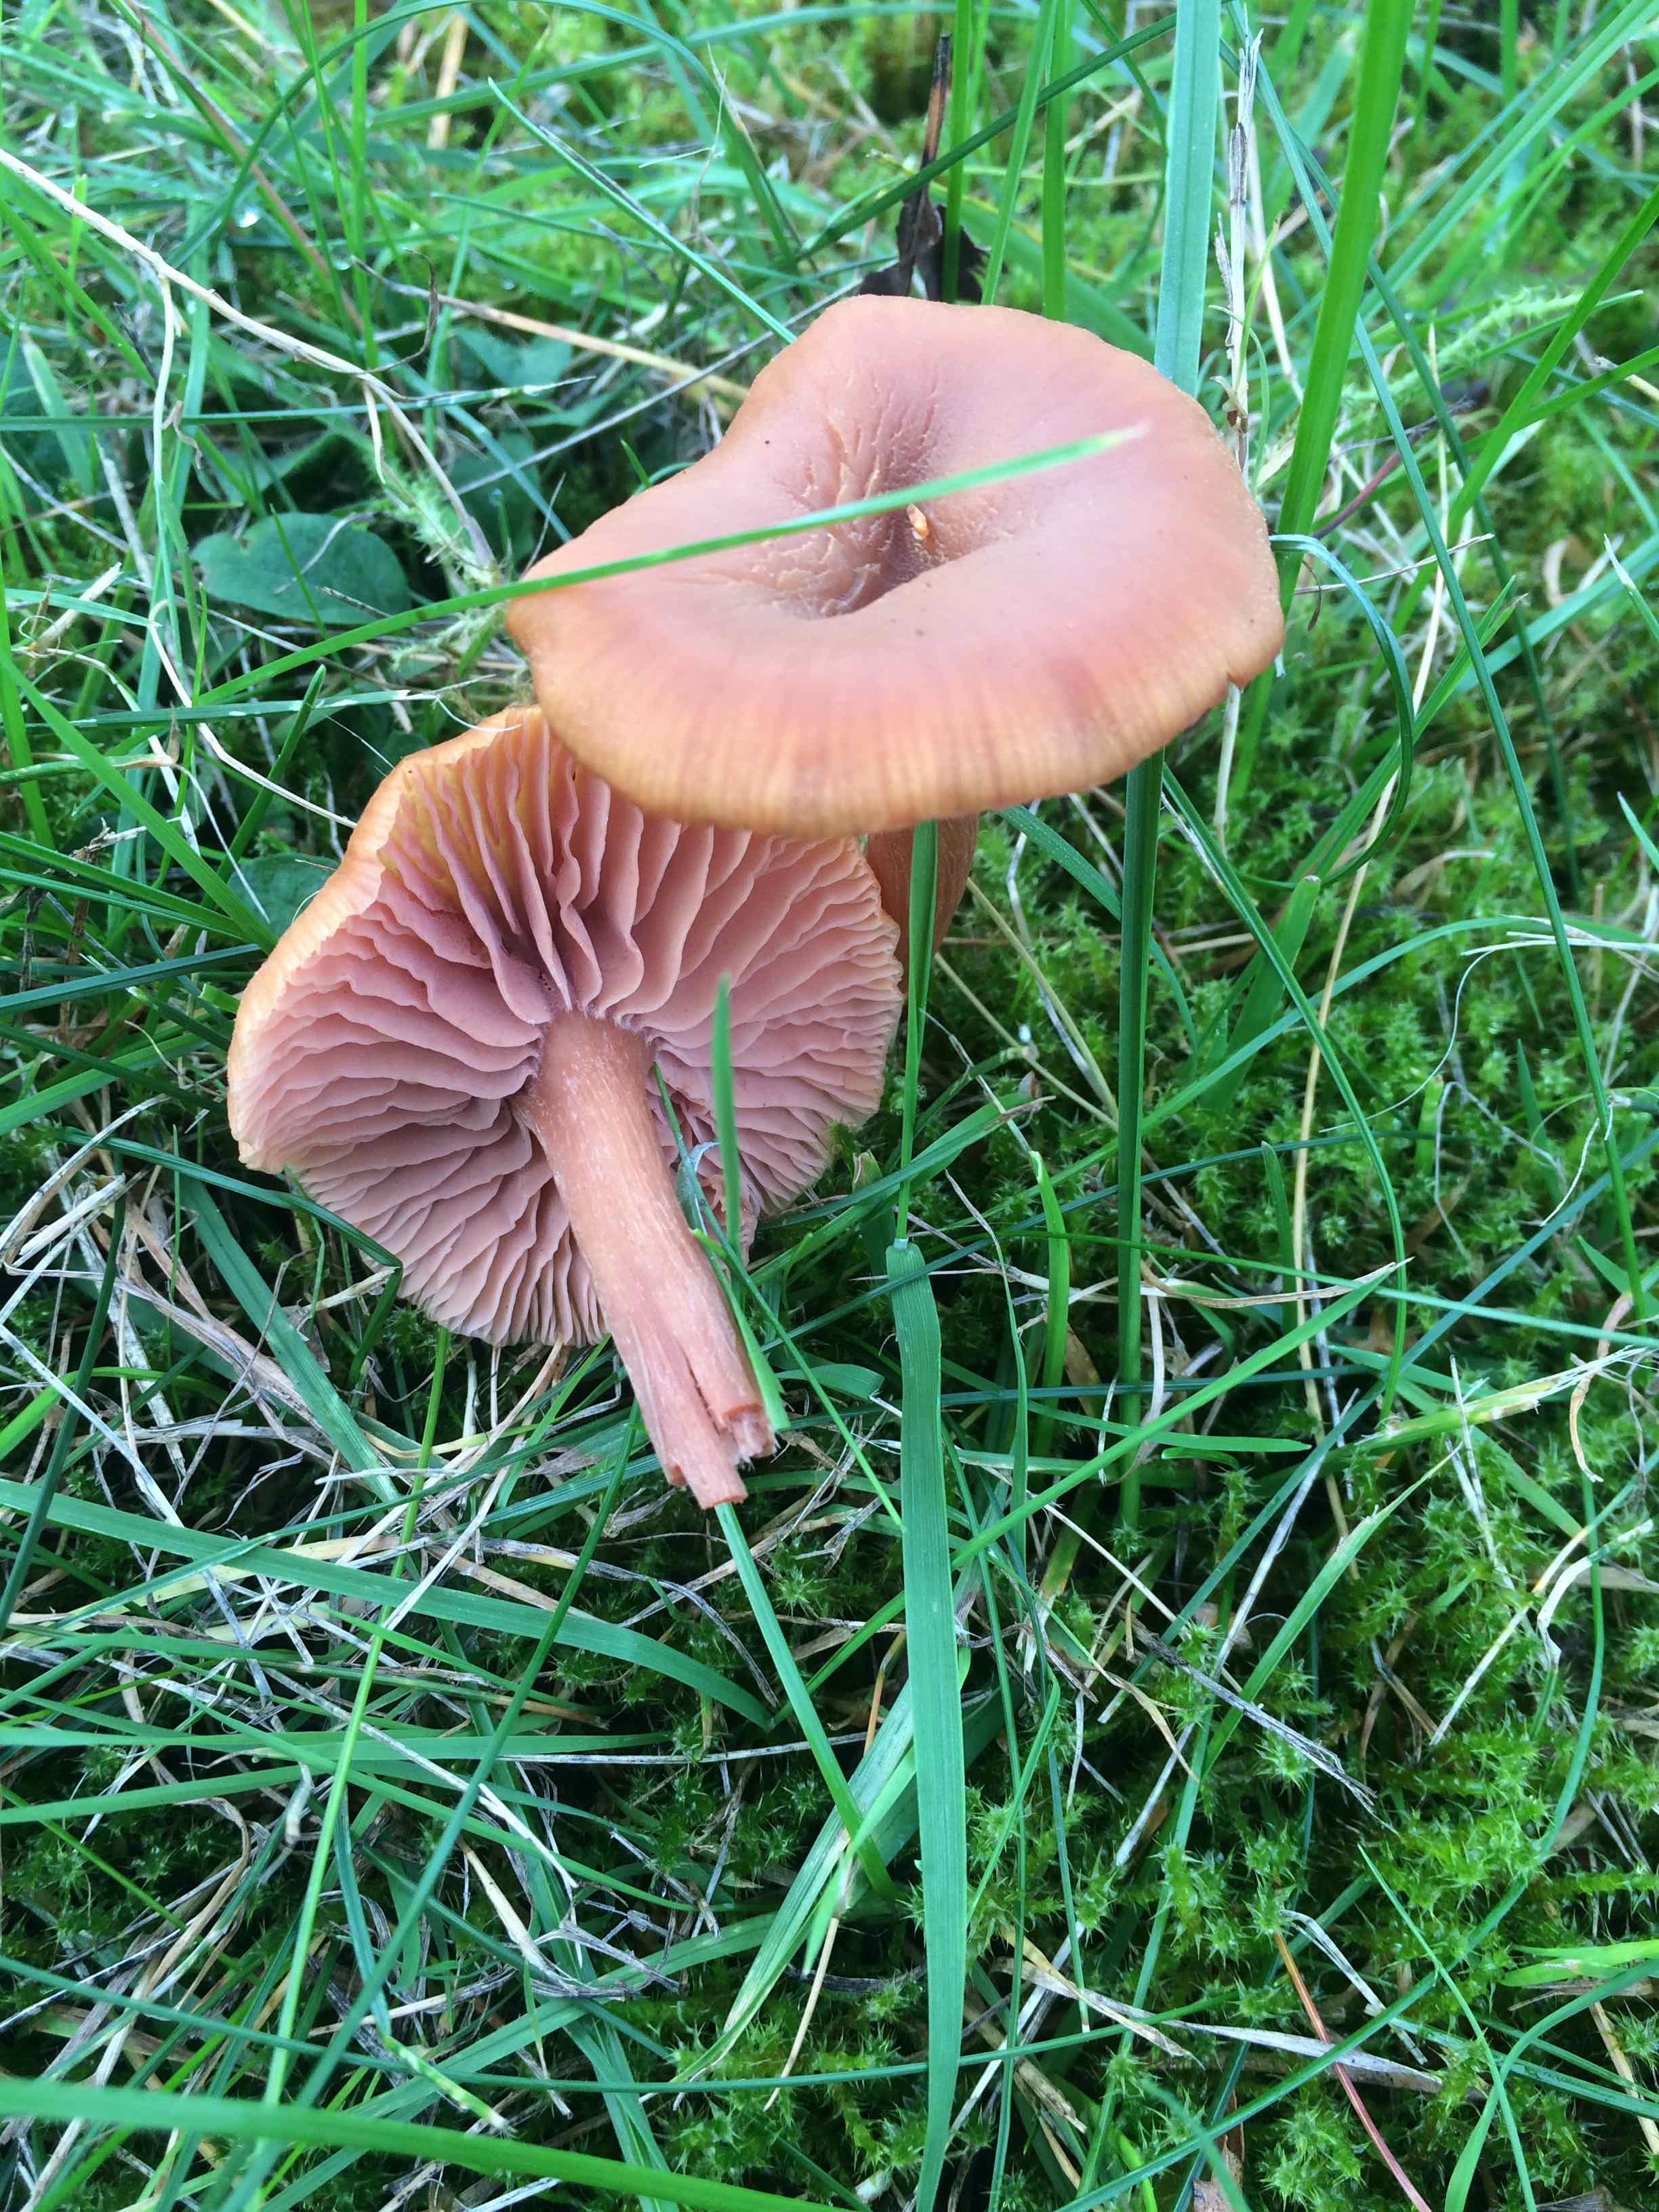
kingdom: Fungi
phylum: Basidiomycota
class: Agaricomycetes
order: Agaricales
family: Hydnangiaceae
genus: Laccaria
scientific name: Laccaria laccata
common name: rød ametysthat
